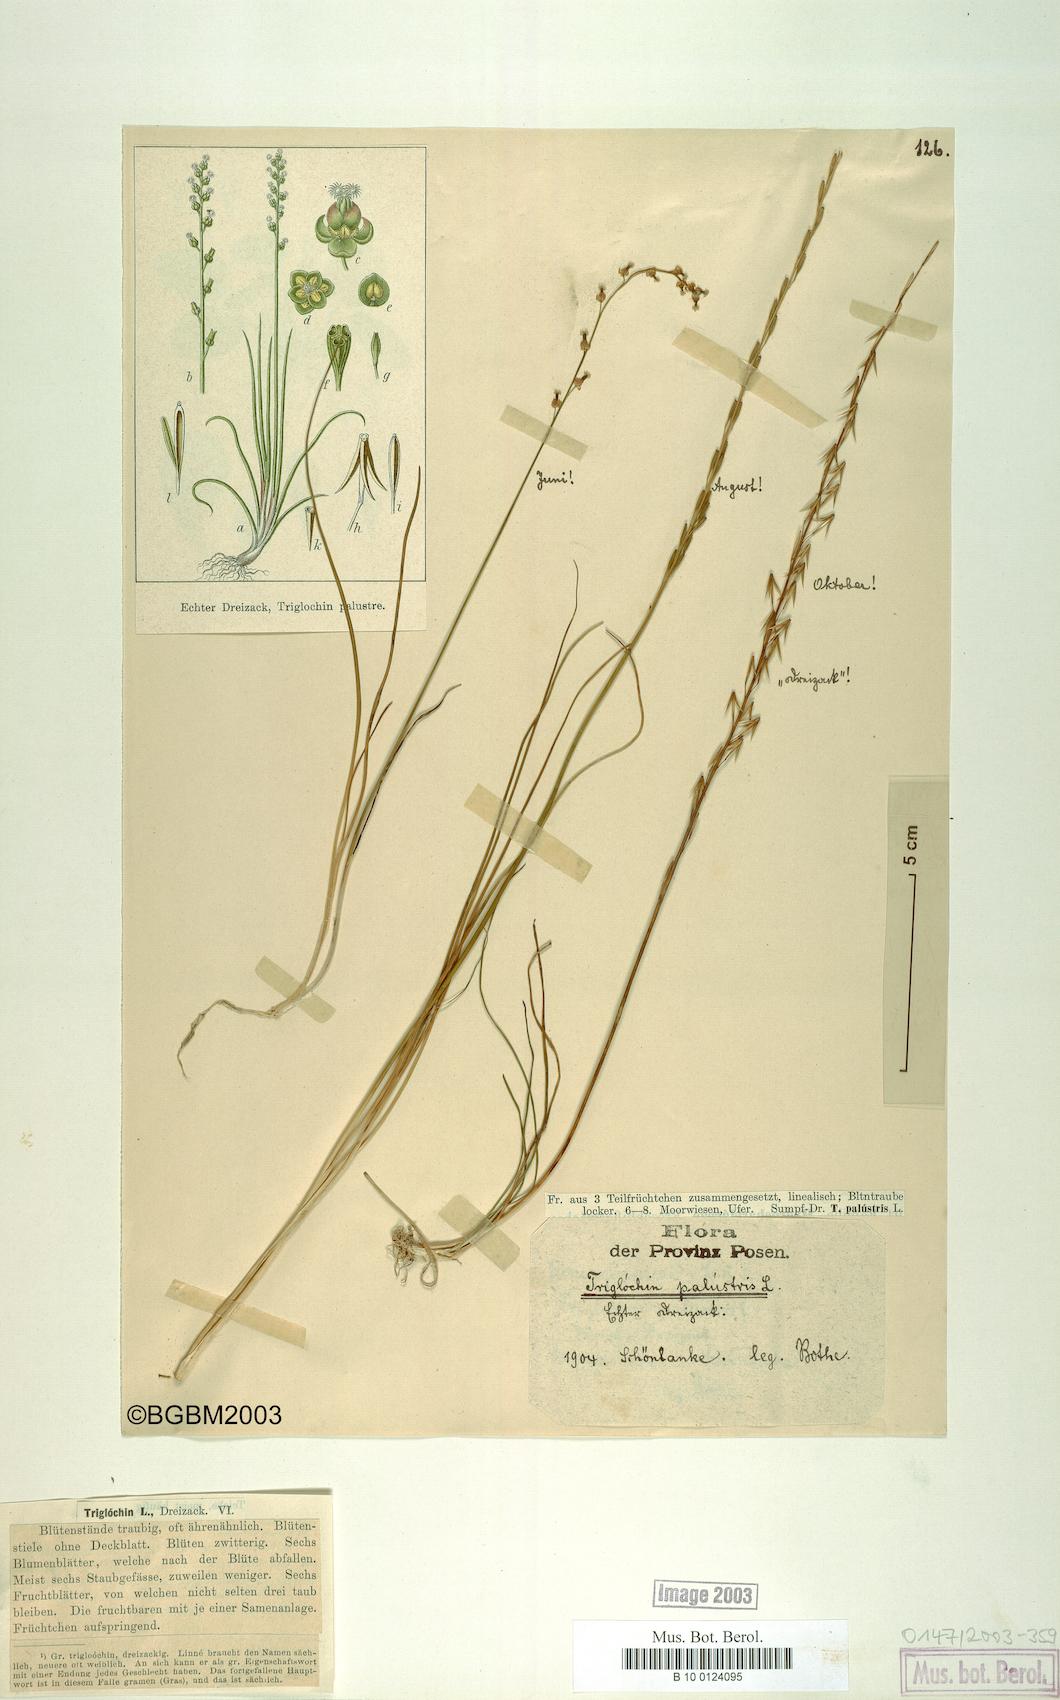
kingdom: Plantae
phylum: Tracheophyta
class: Liliopsida
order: Alismatales
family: Juncaginaceae
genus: Triglochin
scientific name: Triglochin palustris
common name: Marsh arrowgrass
